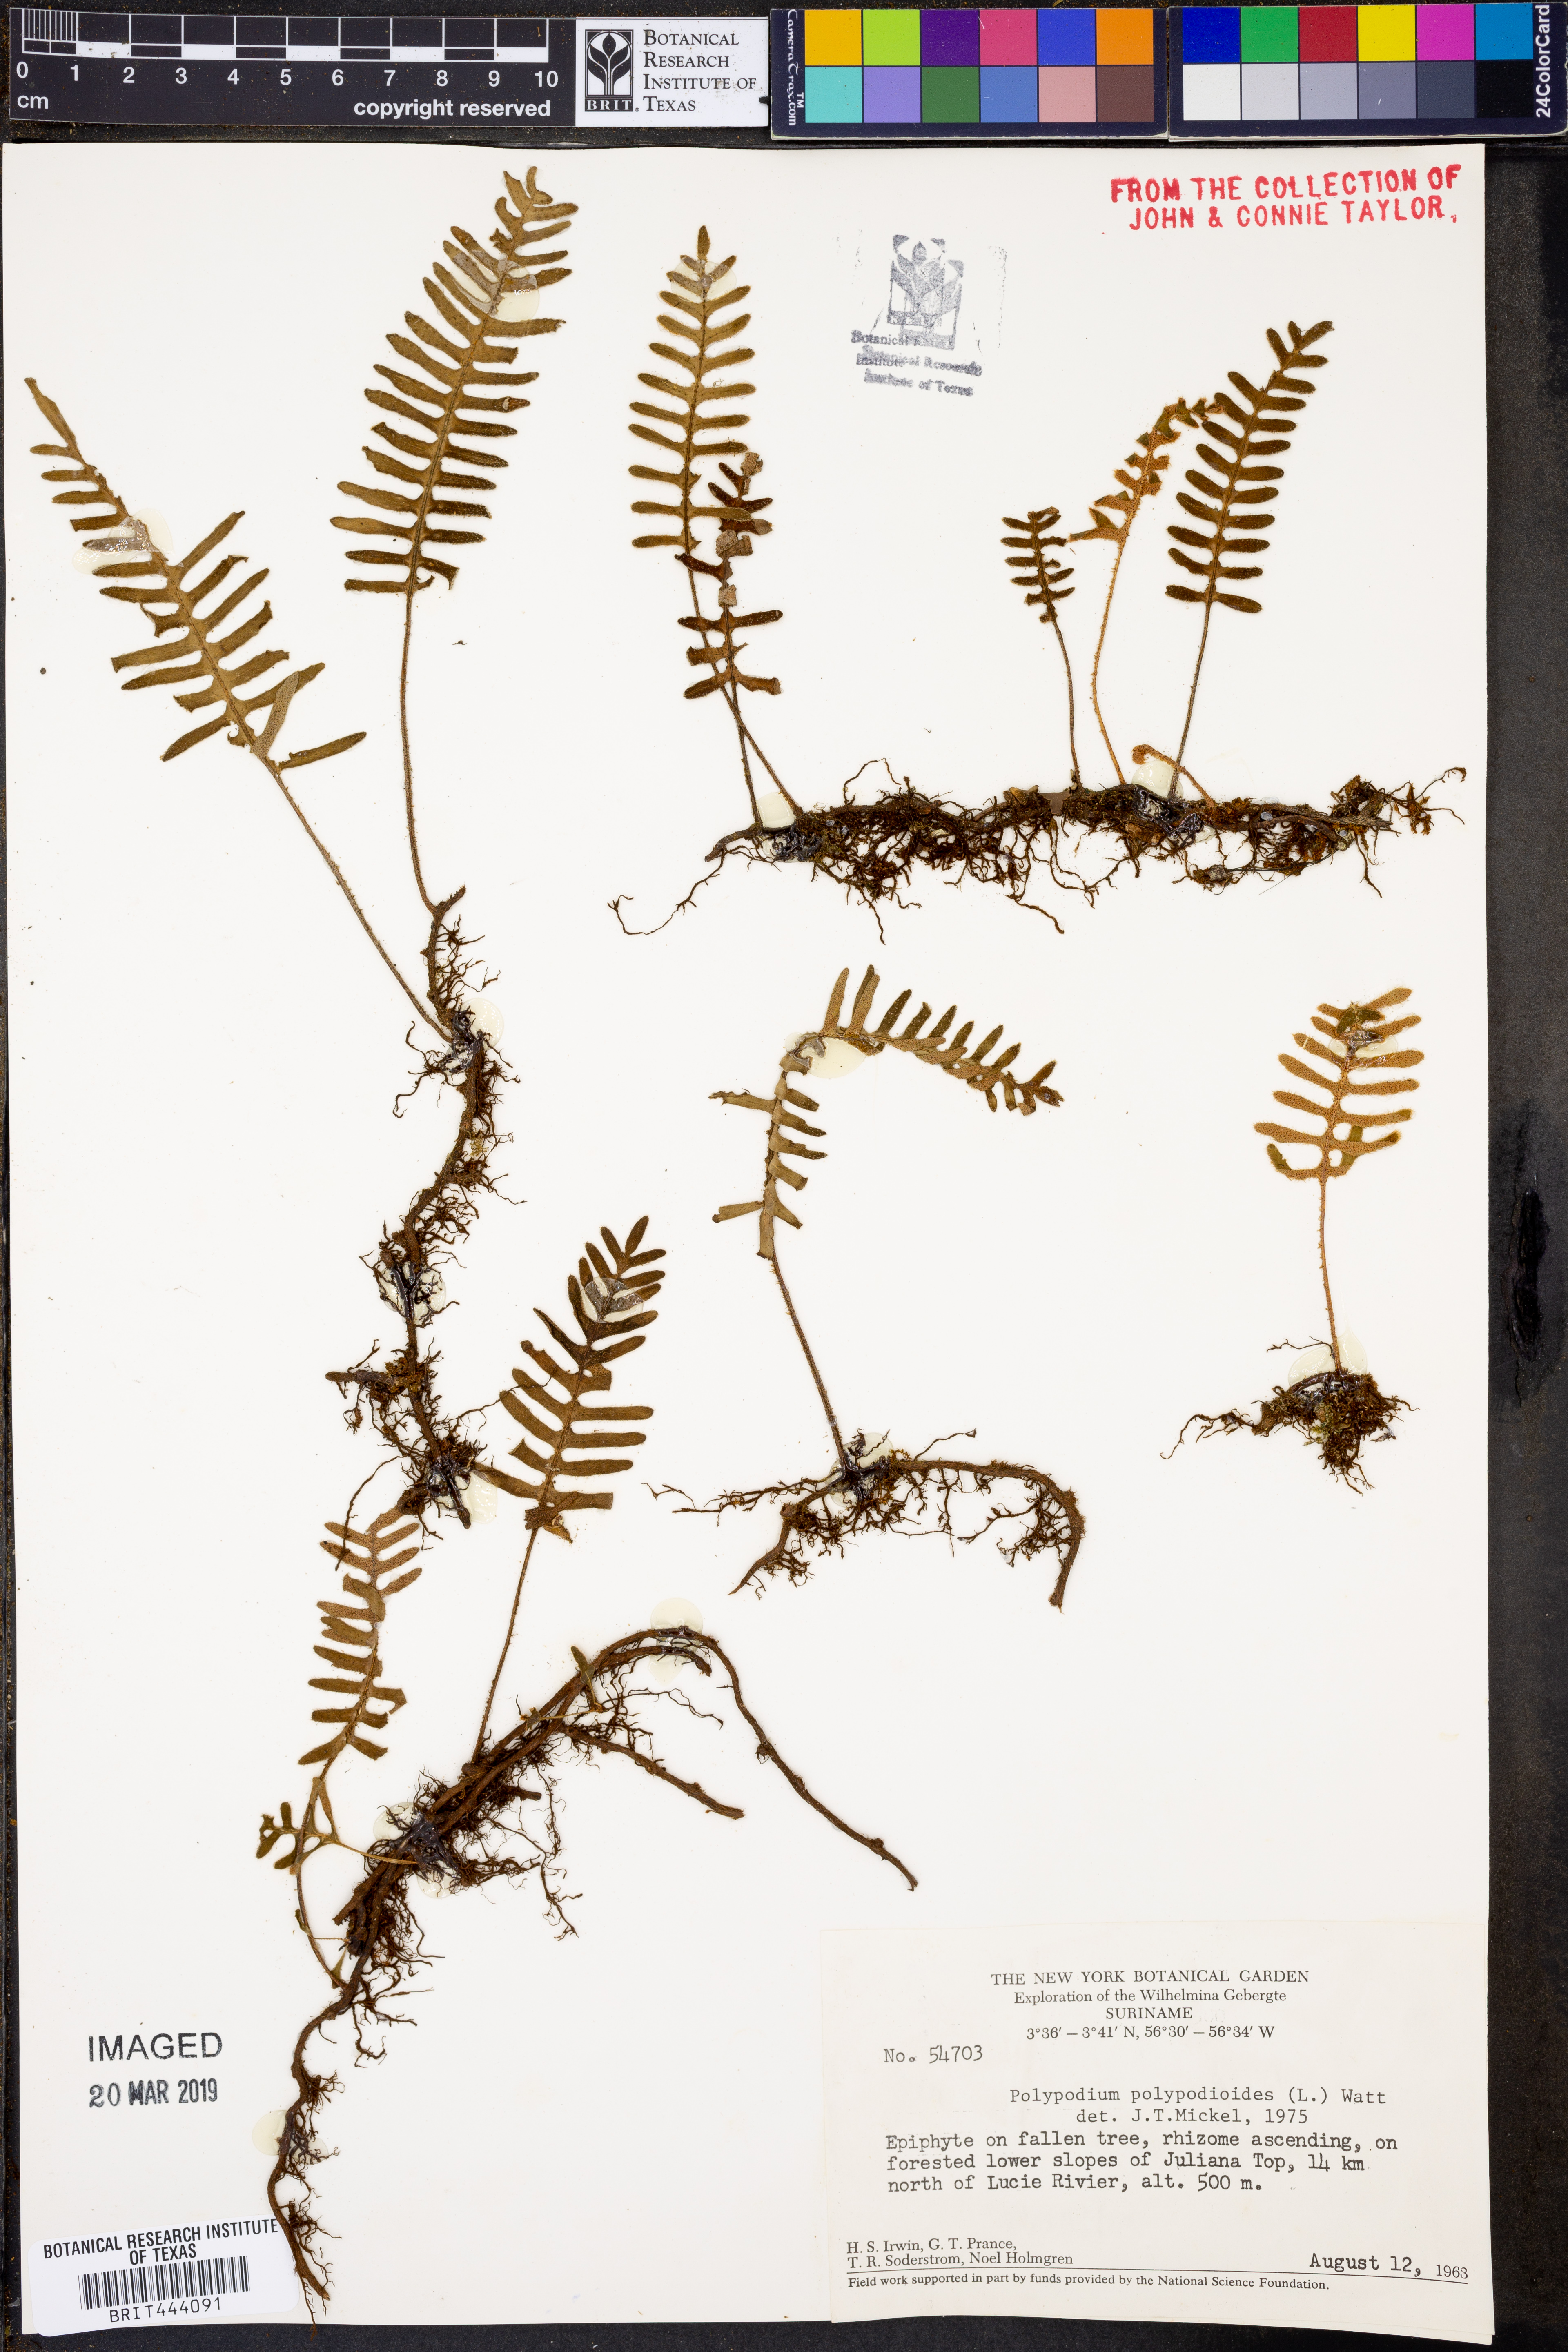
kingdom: Plantae
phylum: Tracheophyta
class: Polypodiopsida
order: Polypodiales
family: Polypodiaceae
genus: Pleopeltis
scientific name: Pleopeltis polypodioides
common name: Resurrection fern
